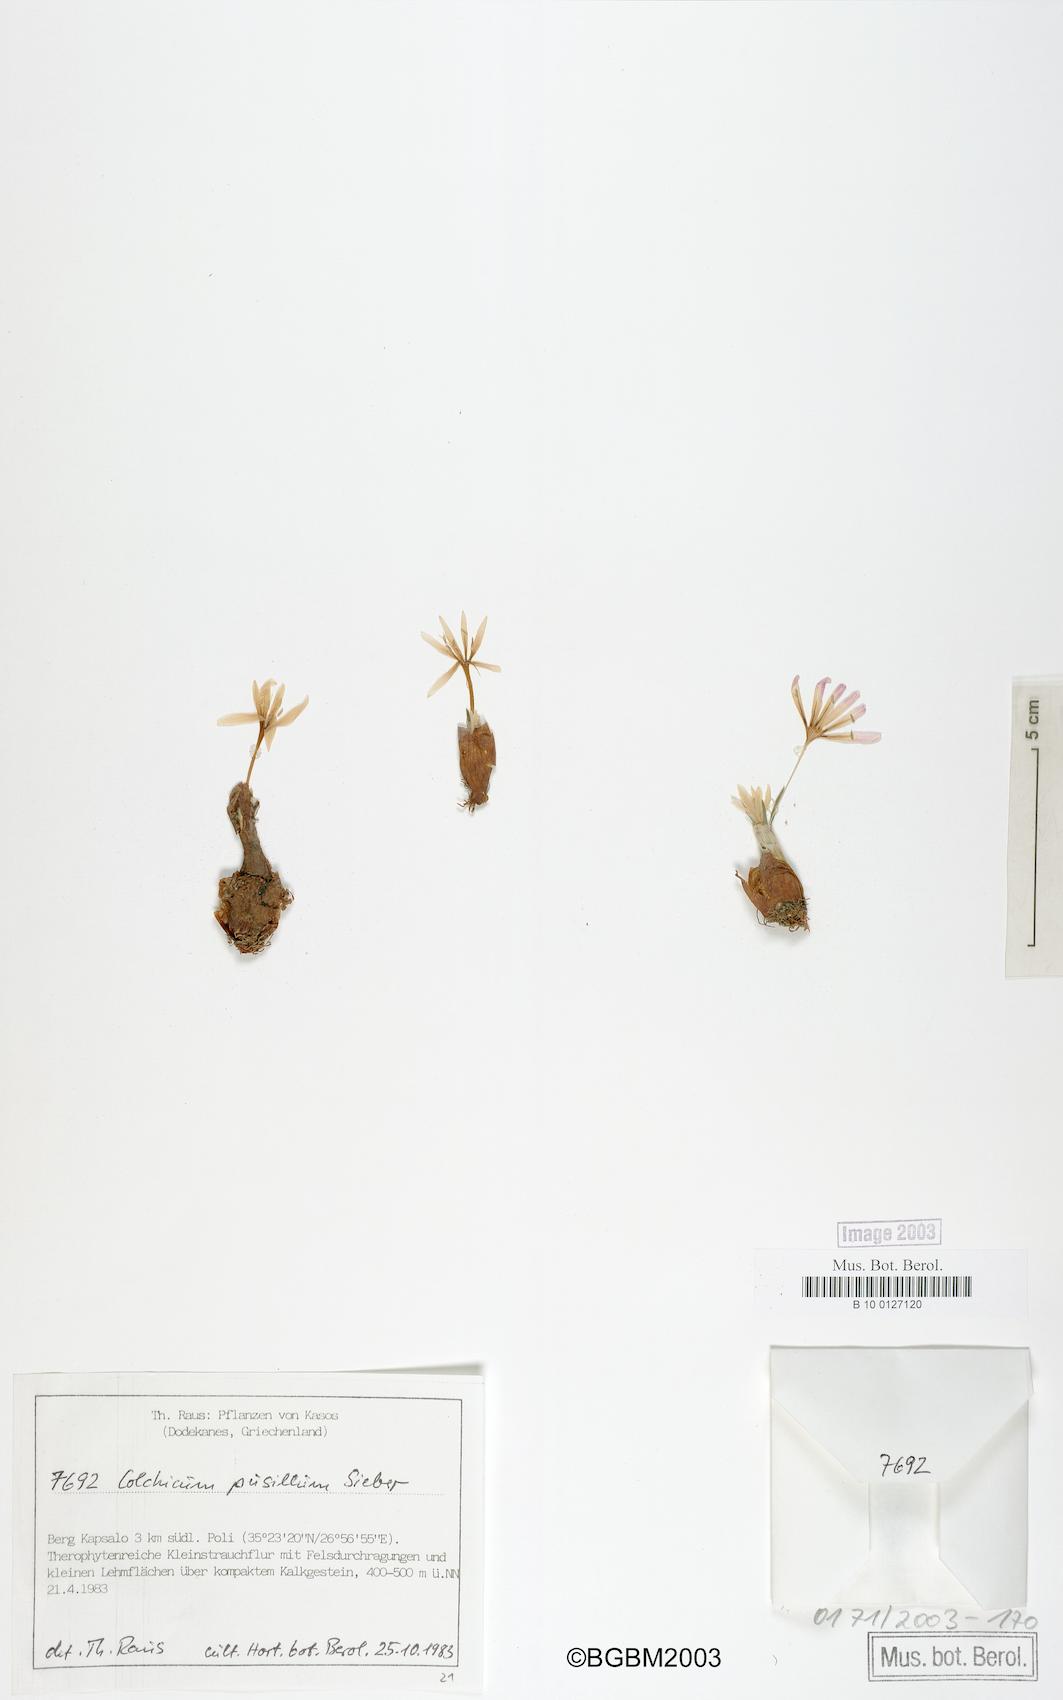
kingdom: Plantae
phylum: Tracheophyta
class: Liliopsida
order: Liliales
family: Colchicaceae
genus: Colchicum
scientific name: Colchicum pusillum
